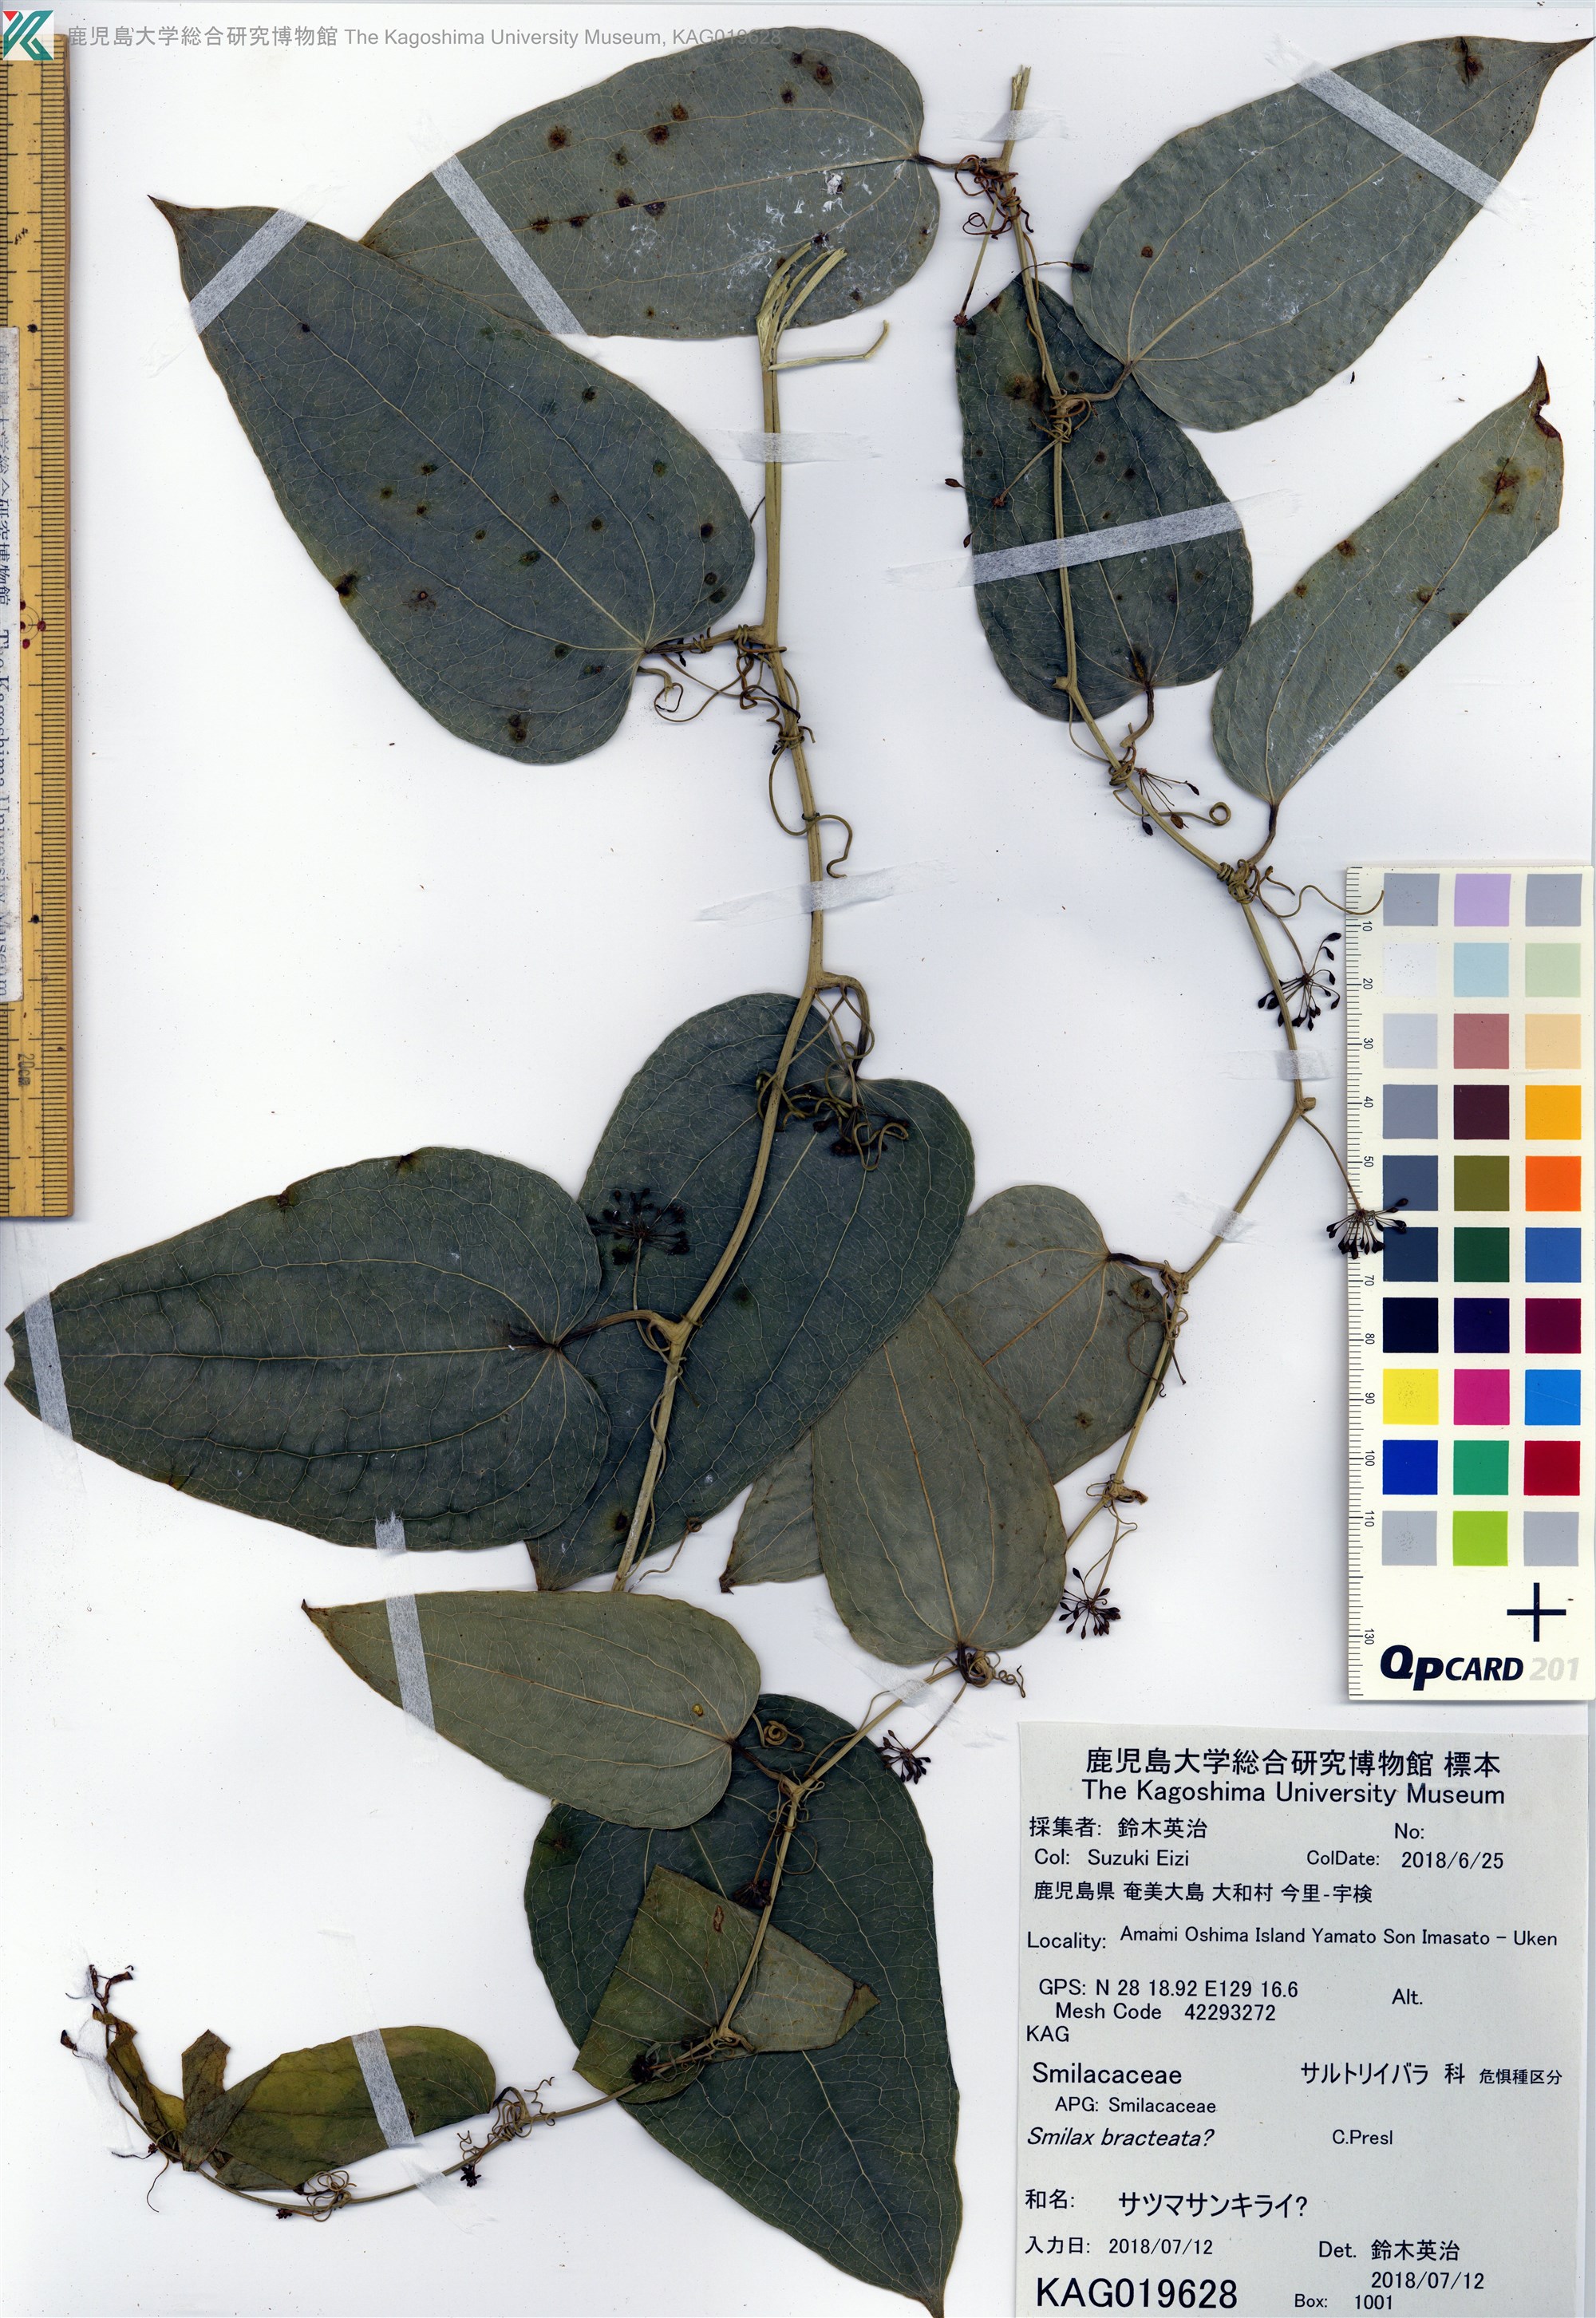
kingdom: Plantae
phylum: Tracheophyta
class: Liliopsida
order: Liliales
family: Smilacaceae
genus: Smilax
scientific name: Smilax insularis
